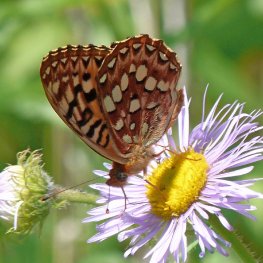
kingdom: Animalia
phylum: Arthropoda
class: Insecta
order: Lepidoptera
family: Nymphalidae
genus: Speyeria
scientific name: Speyeria hydaspe
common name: Hydaspe Fritillary
